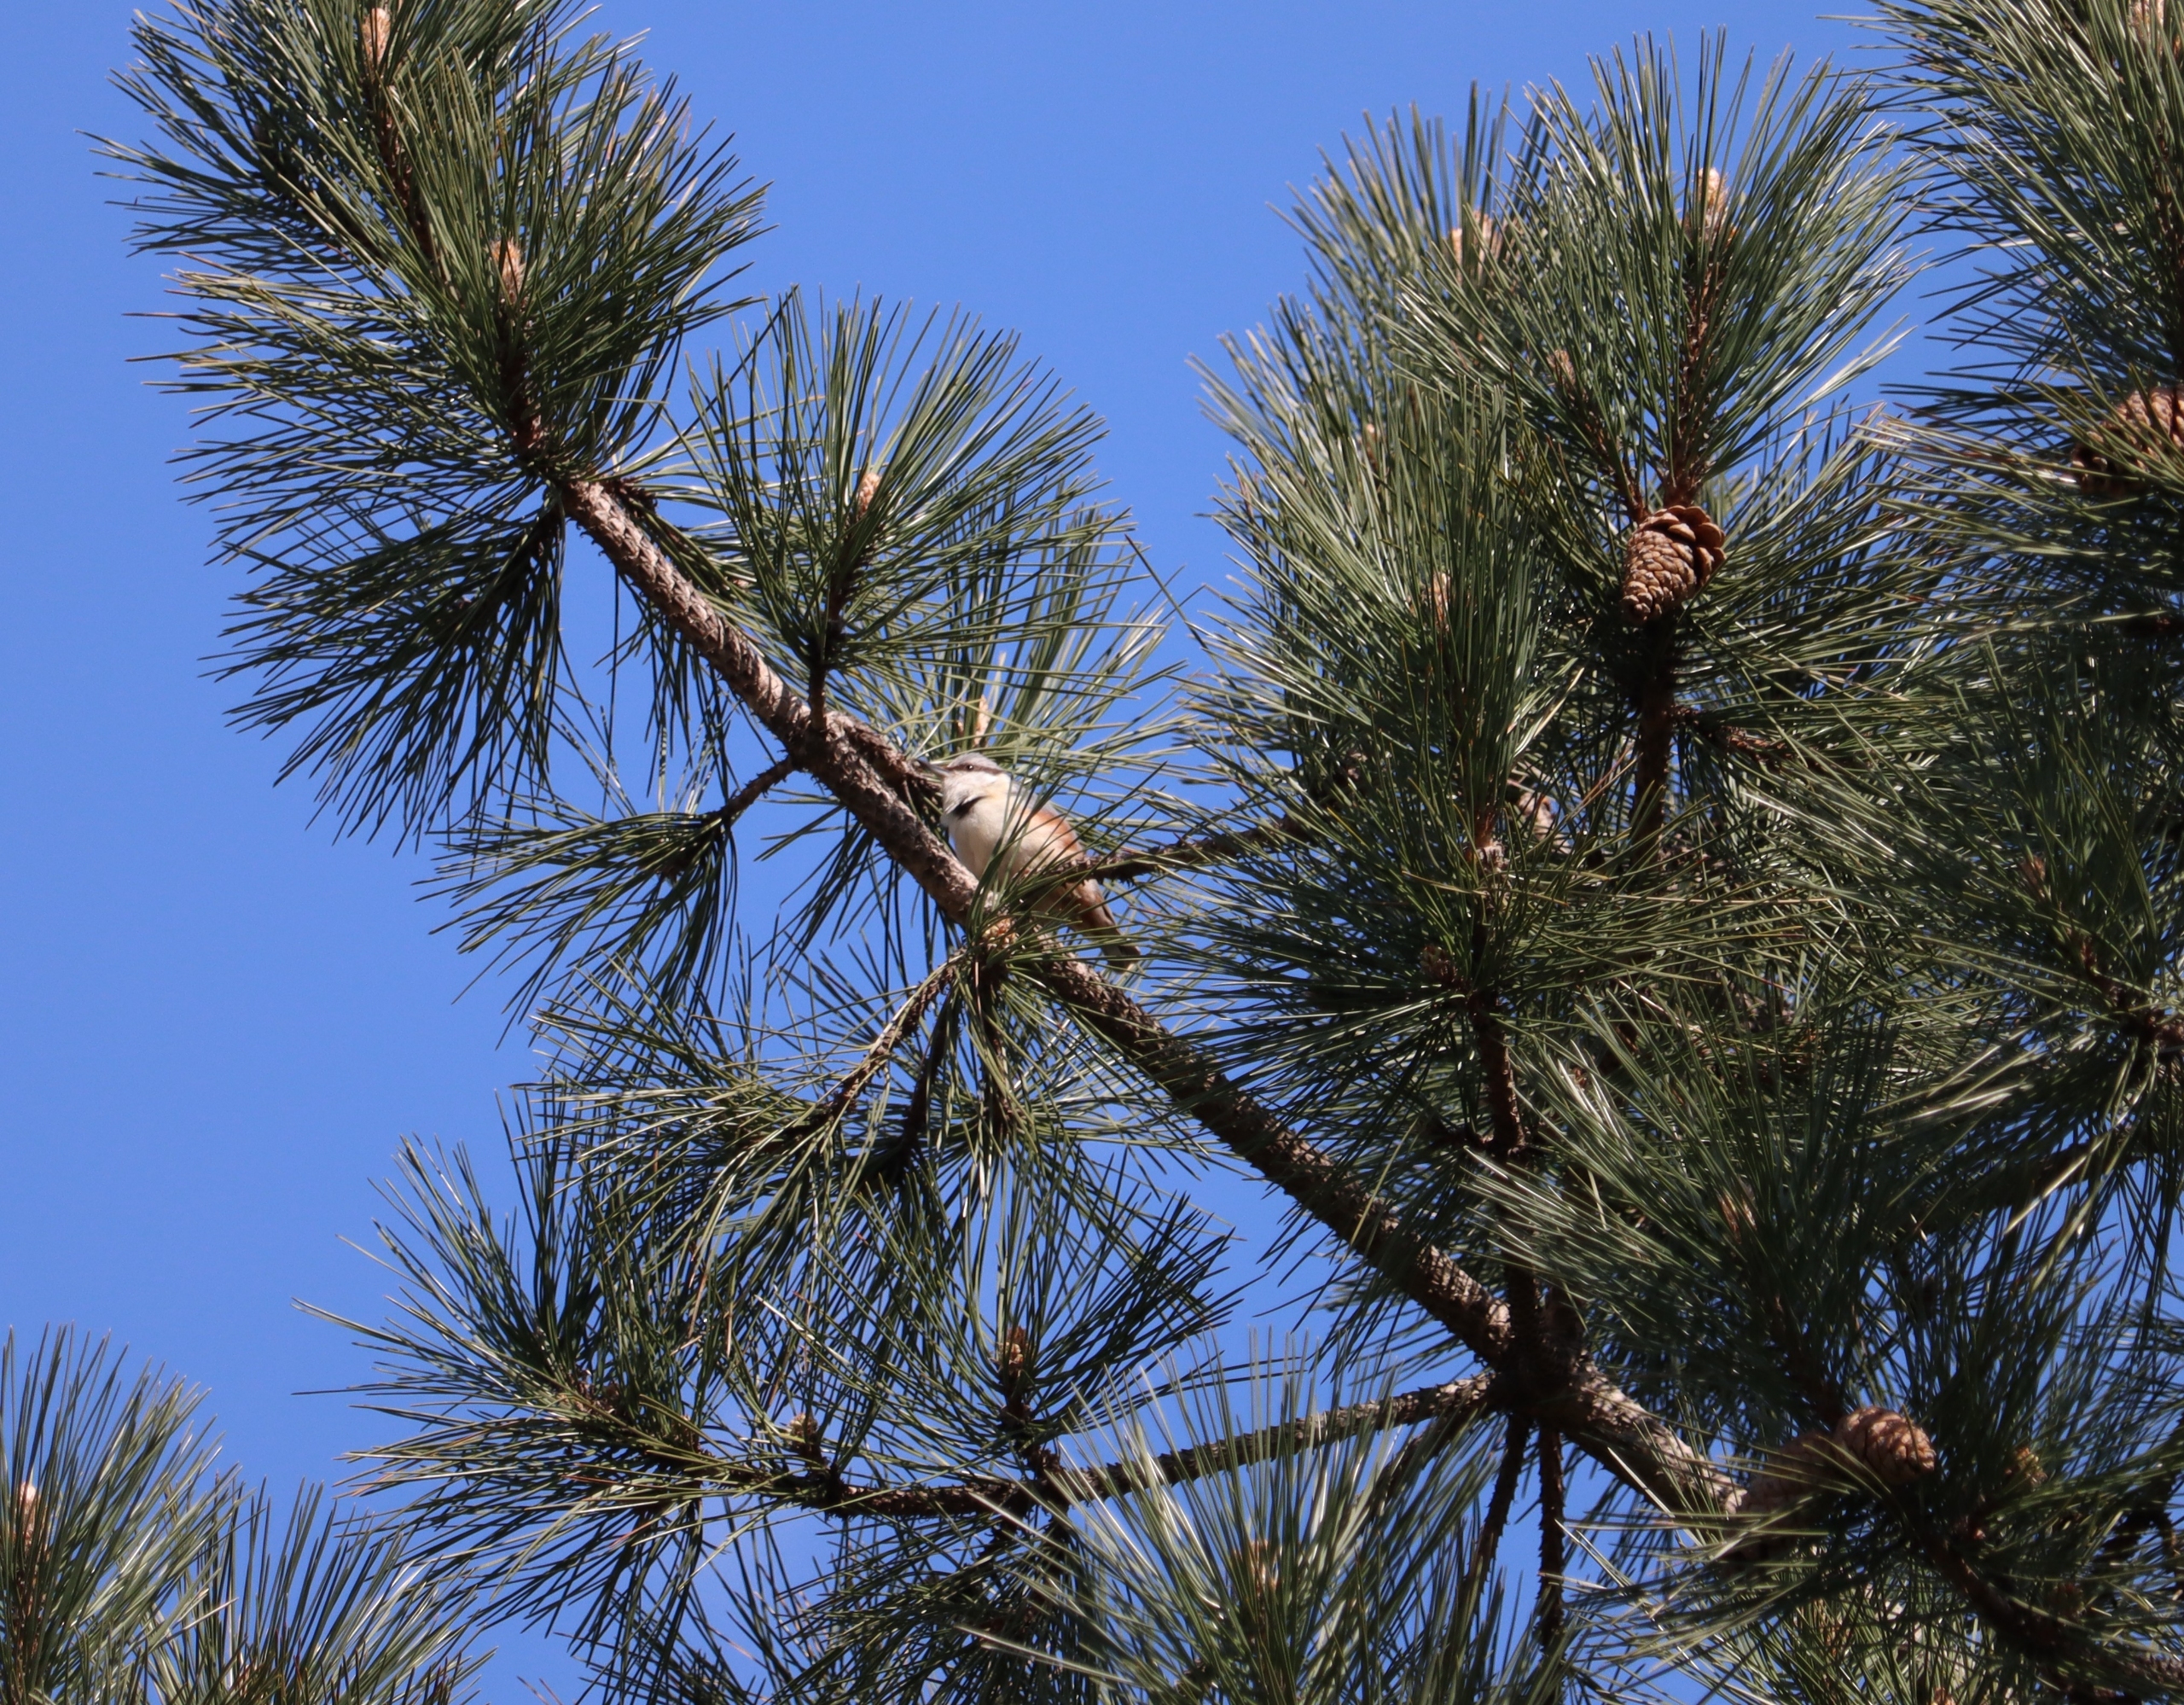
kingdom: Animalia
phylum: Chordata
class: Aves
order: Passeriformes
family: Sittidae
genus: Sitta
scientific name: Sitta europaea
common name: Spætmejse
